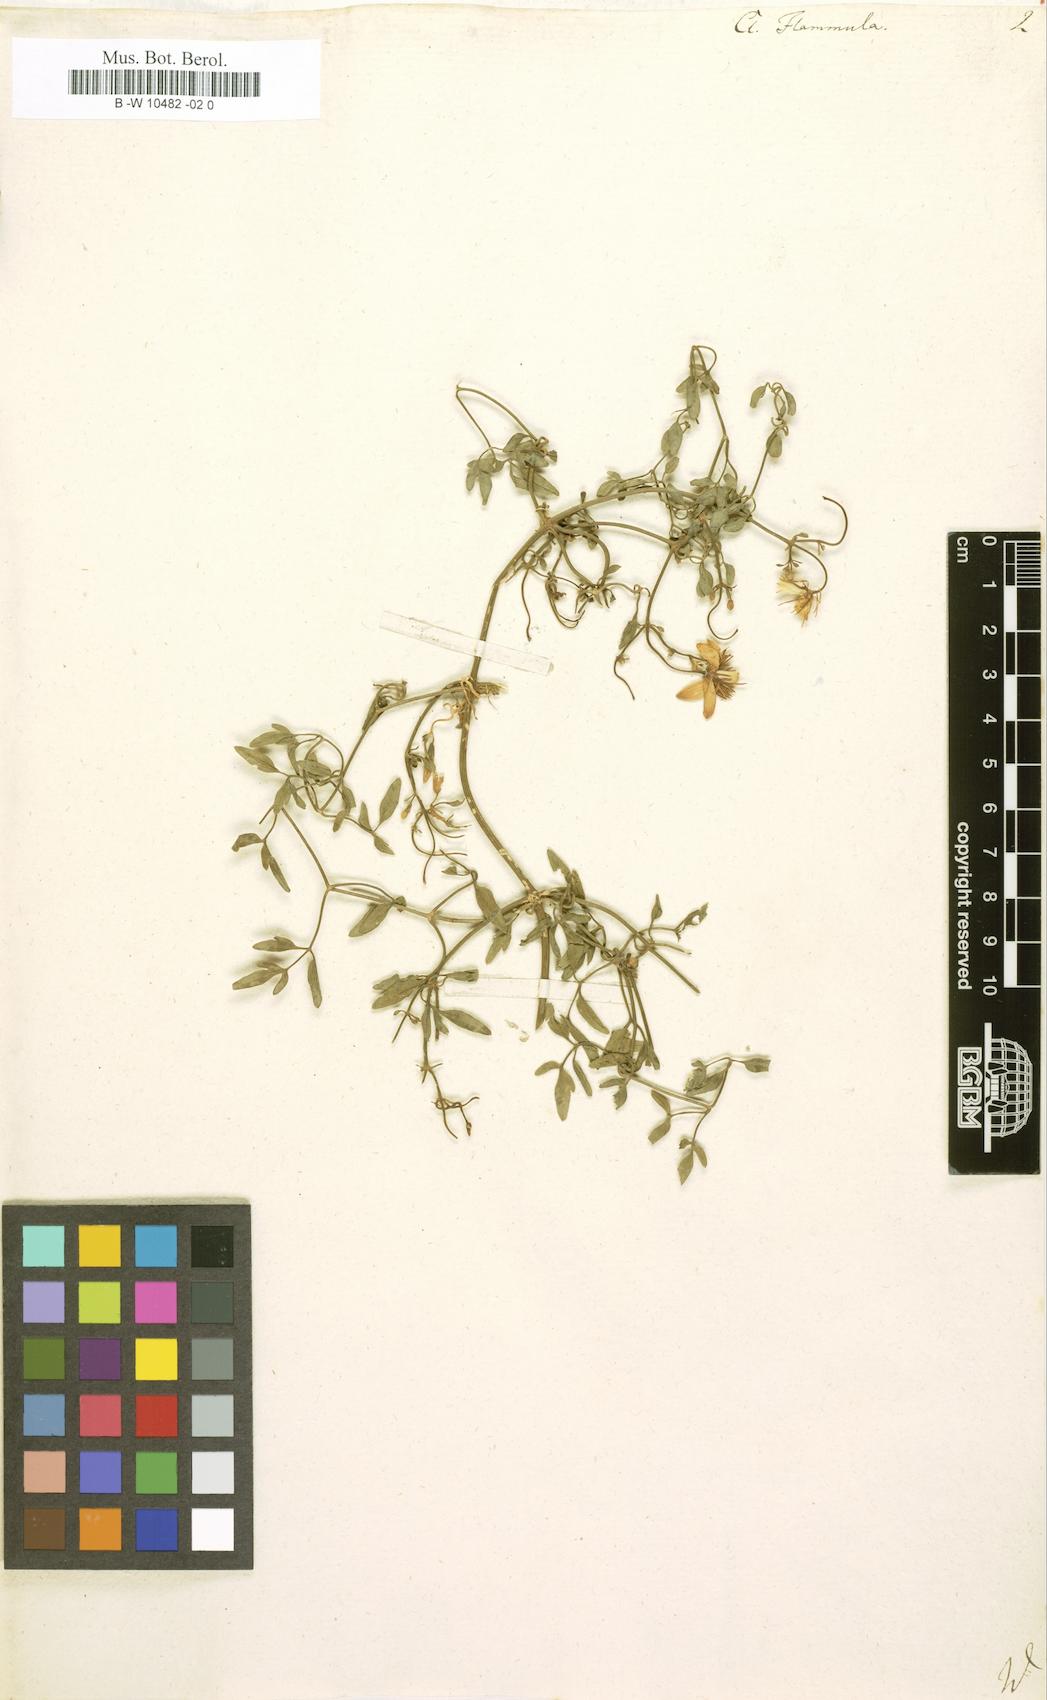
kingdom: Plantae
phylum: Tracheophyta
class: Magnoliopsida
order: Ranunculales
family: Ranunculaceae
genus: Clematis
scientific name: Clematis flammula
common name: Virgin's-bower
